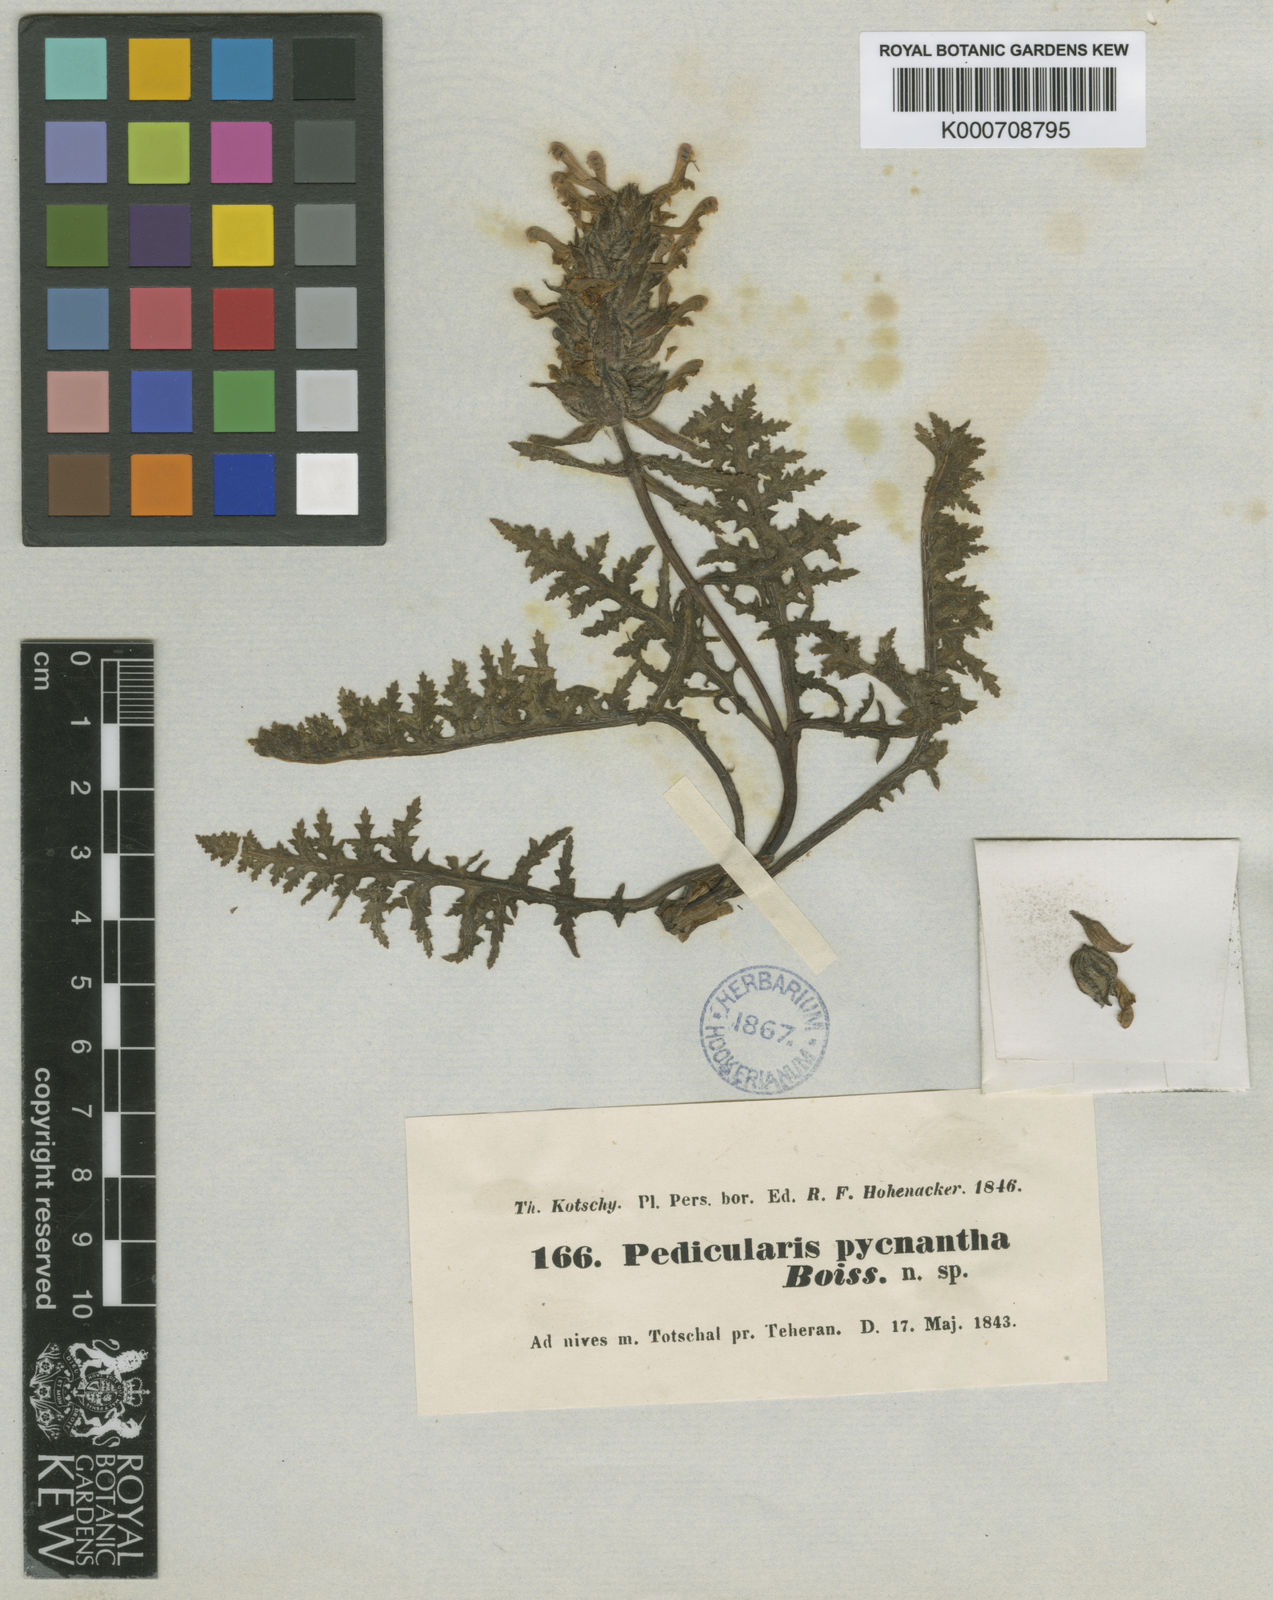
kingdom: Plantae
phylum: Tracheophyta
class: Magnoliopsida
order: Lamiales
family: Orobanchaceae
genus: Pedicularis
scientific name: Pedicularis pycnantha
